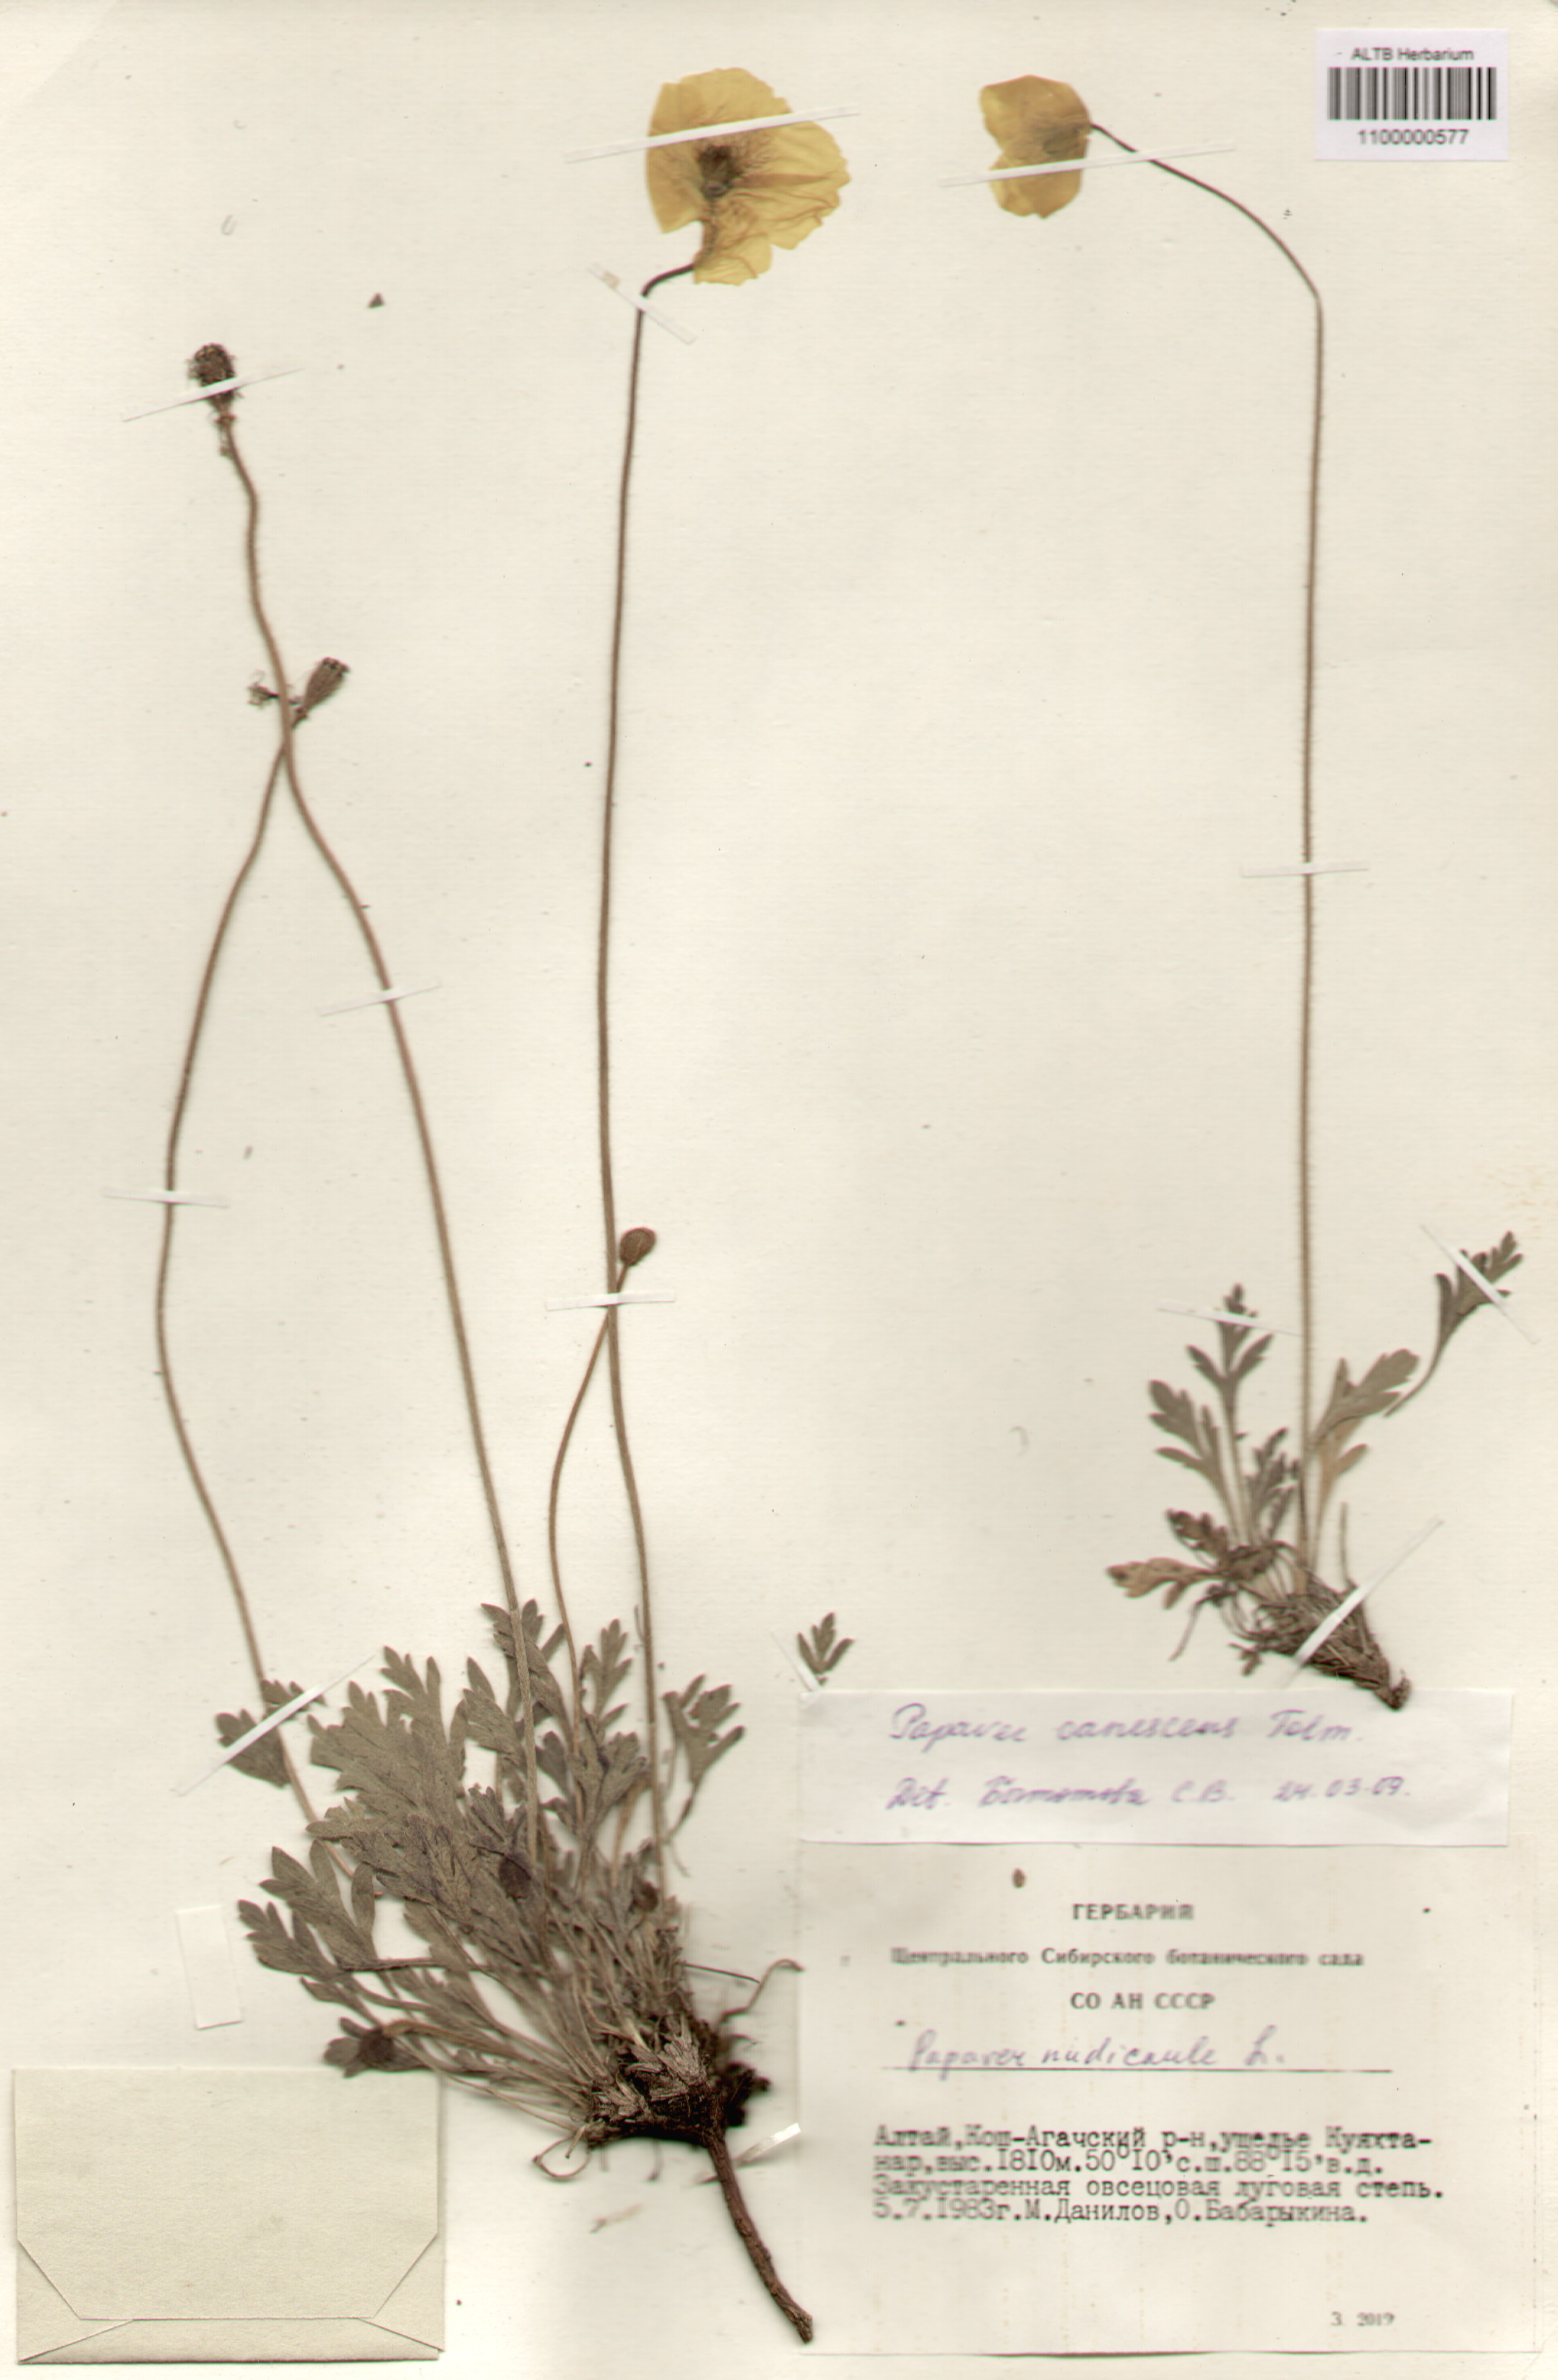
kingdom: Plantae
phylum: Tracheophyta
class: Magnoliopsida
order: Ranunculales
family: Papaveraceae
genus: Papaver
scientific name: Papaver canescens
